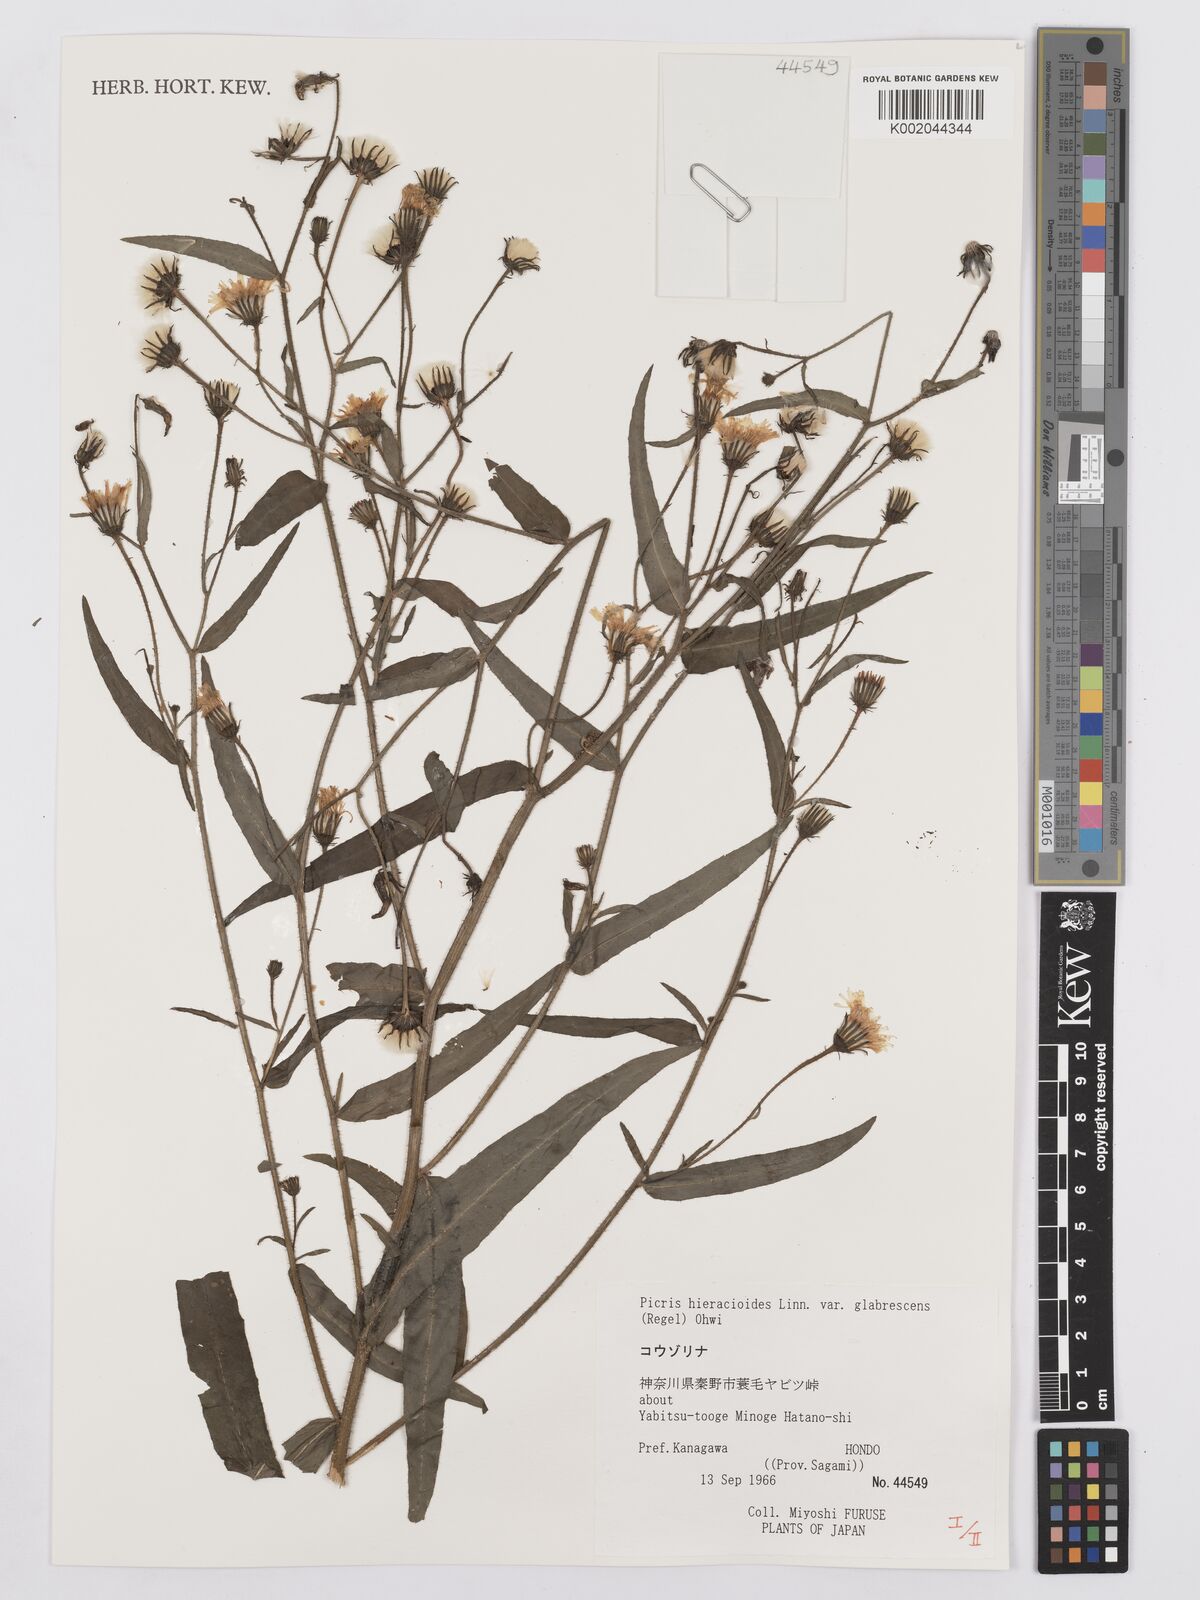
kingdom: Plantae
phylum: Tracheophyta
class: Magnoliopsida
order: Asterales
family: Asteraceae
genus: Picris
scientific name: Picris hieracioides
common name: Hawkweed oxtongue
